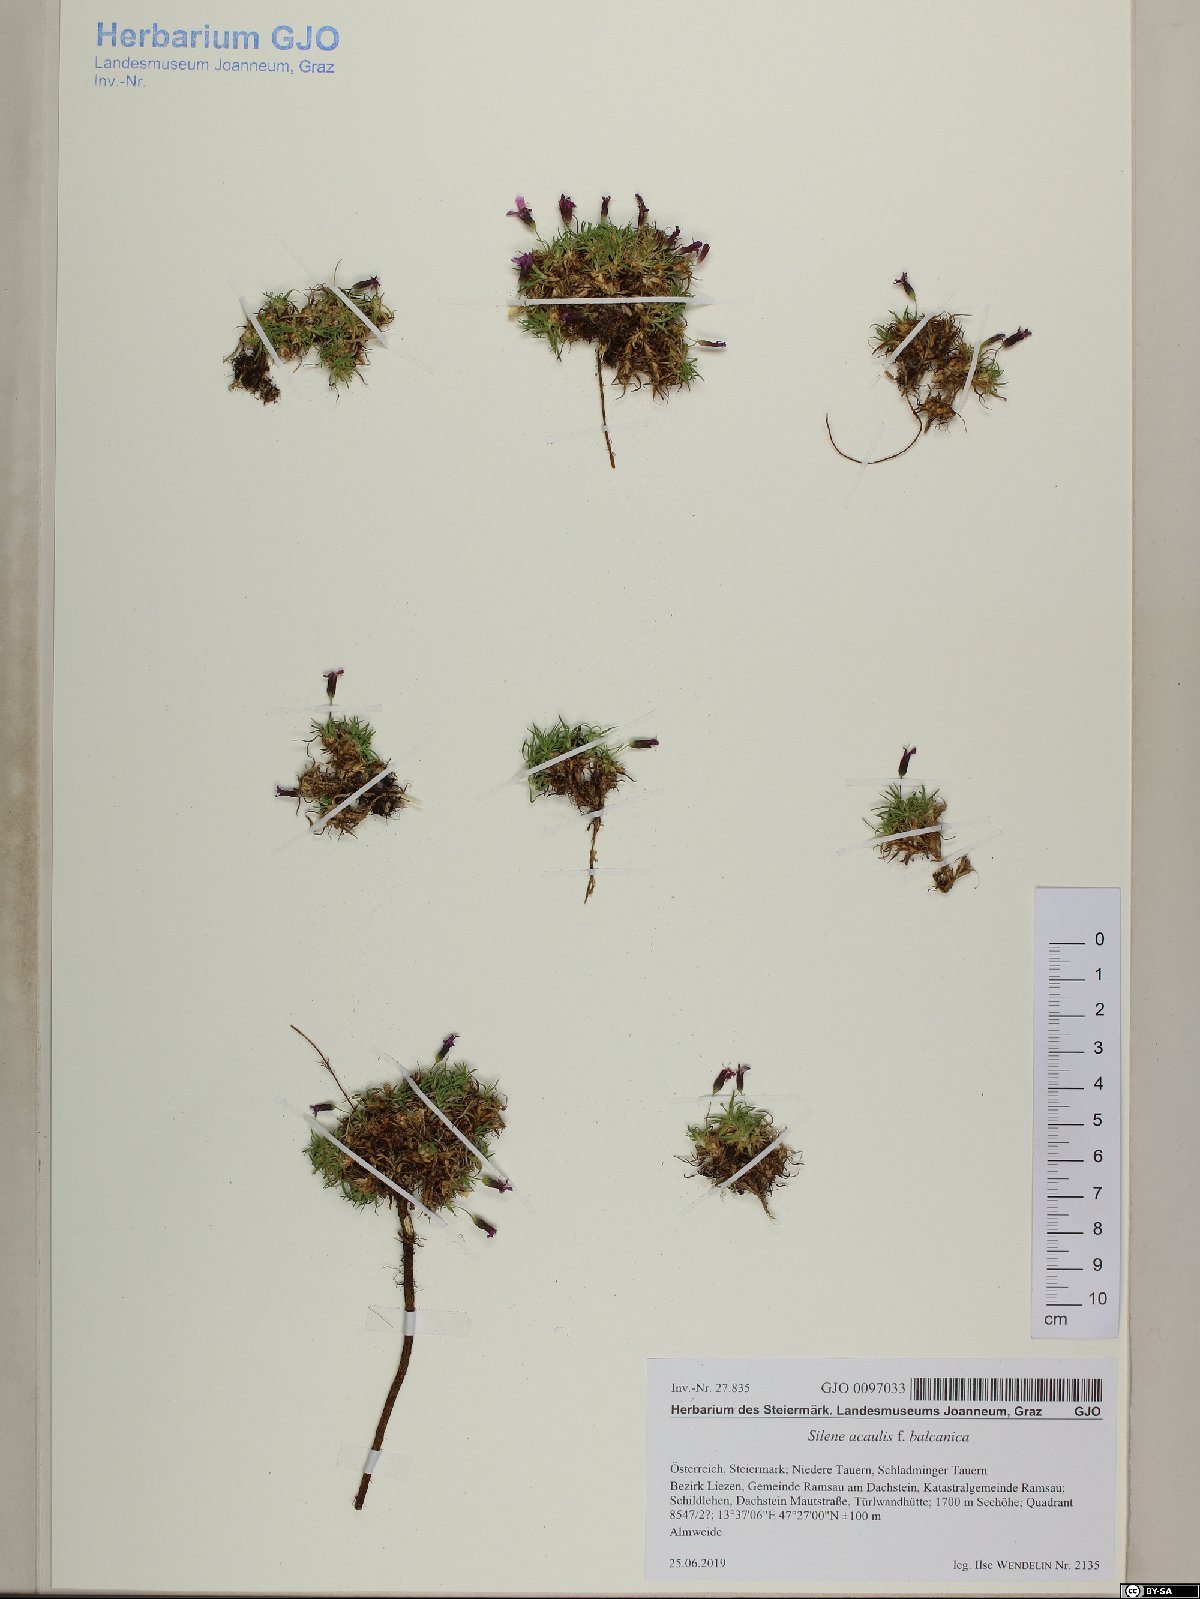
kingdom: Plantae
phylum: Tracheophyta
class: Magnoliopsida
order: Caryophyllales
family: Caryophyllaceae
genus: Silene
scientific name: Silene acaulis
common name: Moss campion
